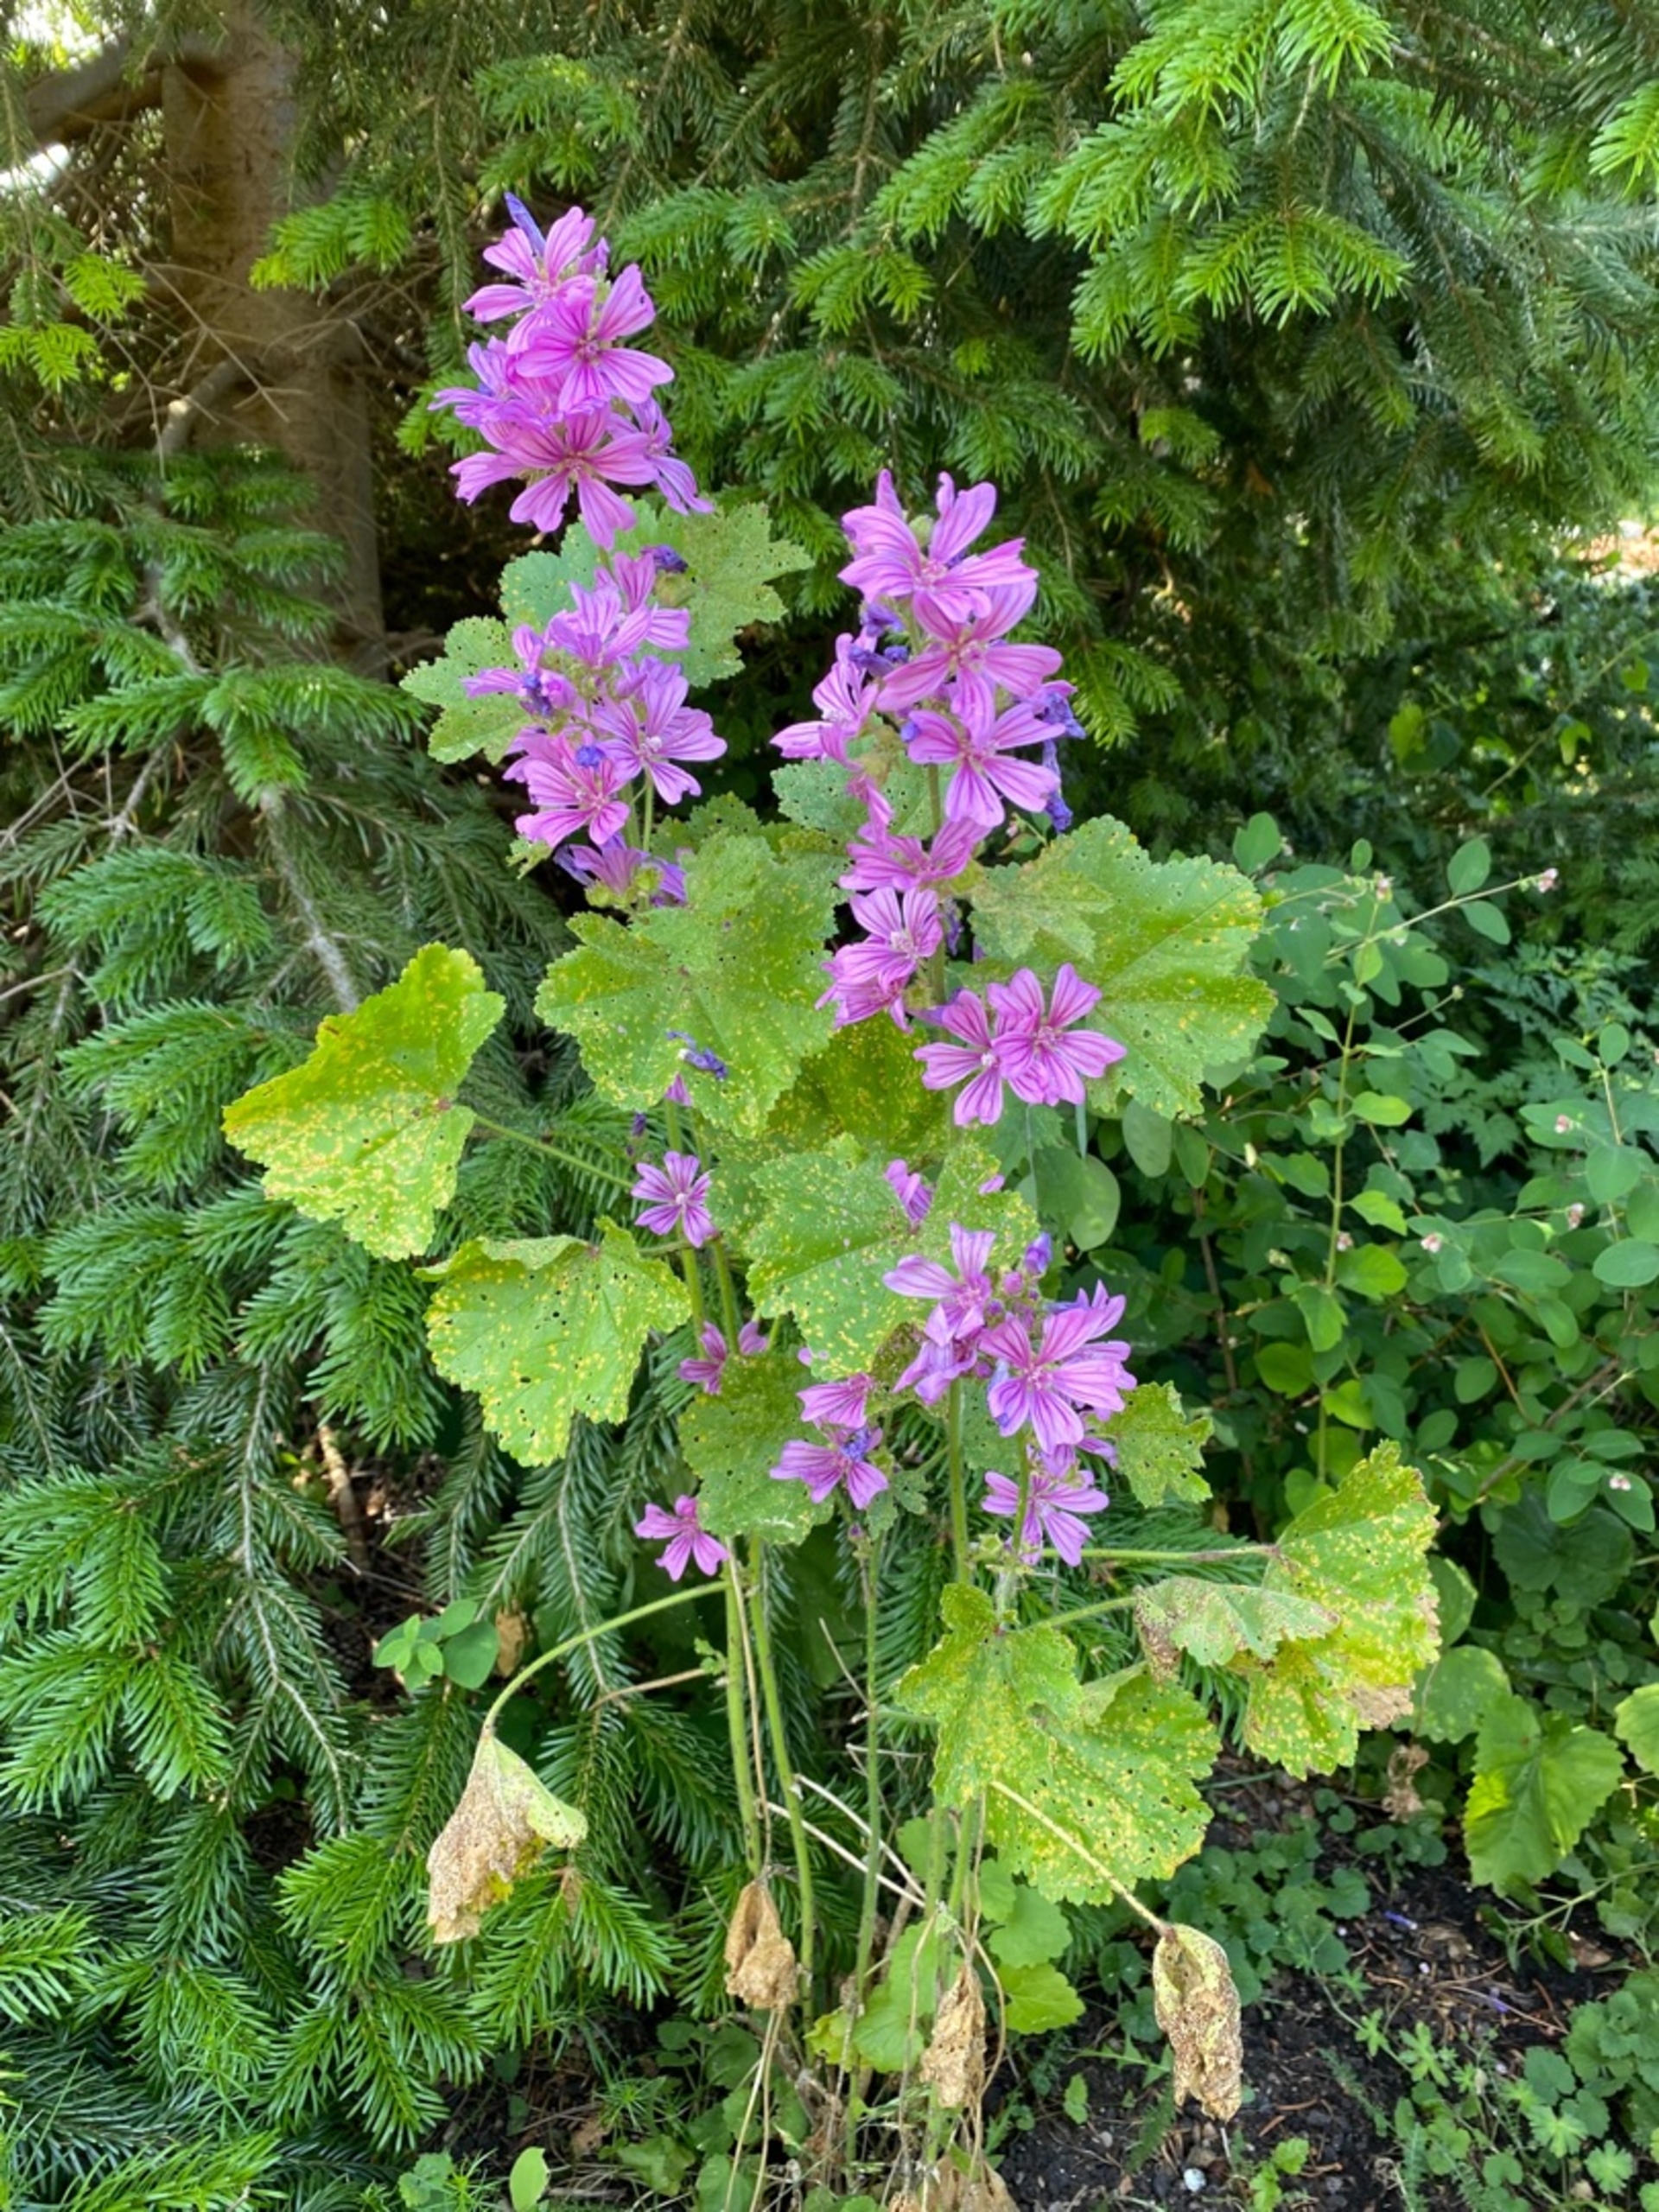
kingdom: Plantae
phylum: Tracheophyta
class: Magnoliopsida
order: Malvales
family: Malvaceae
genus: Malva
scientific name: Malva sylvestris
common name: Almindelig katost
